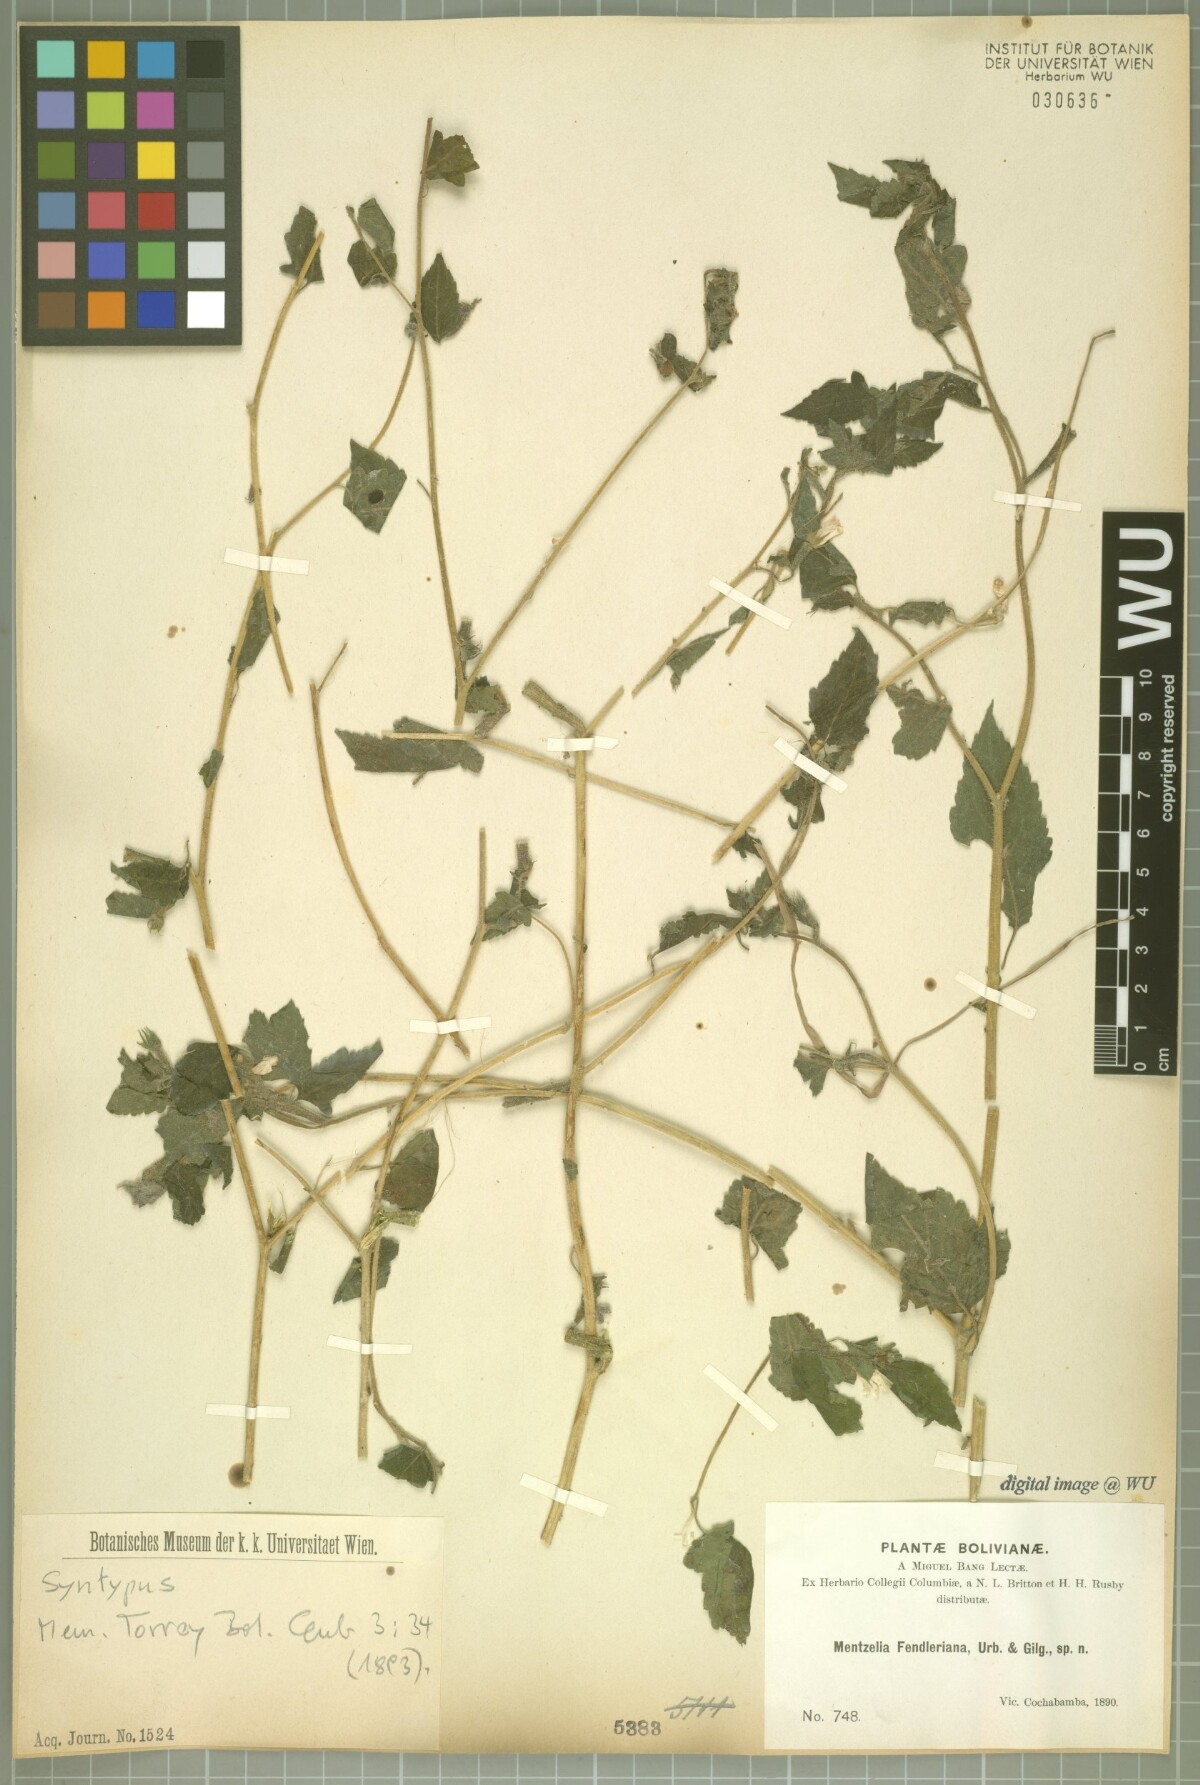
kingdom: Plantae
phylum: Tracheophyta
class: Magnoliopsida
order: Cornales
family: Loasaceae
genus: Mentzelia
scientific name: Mentzelia scabra
